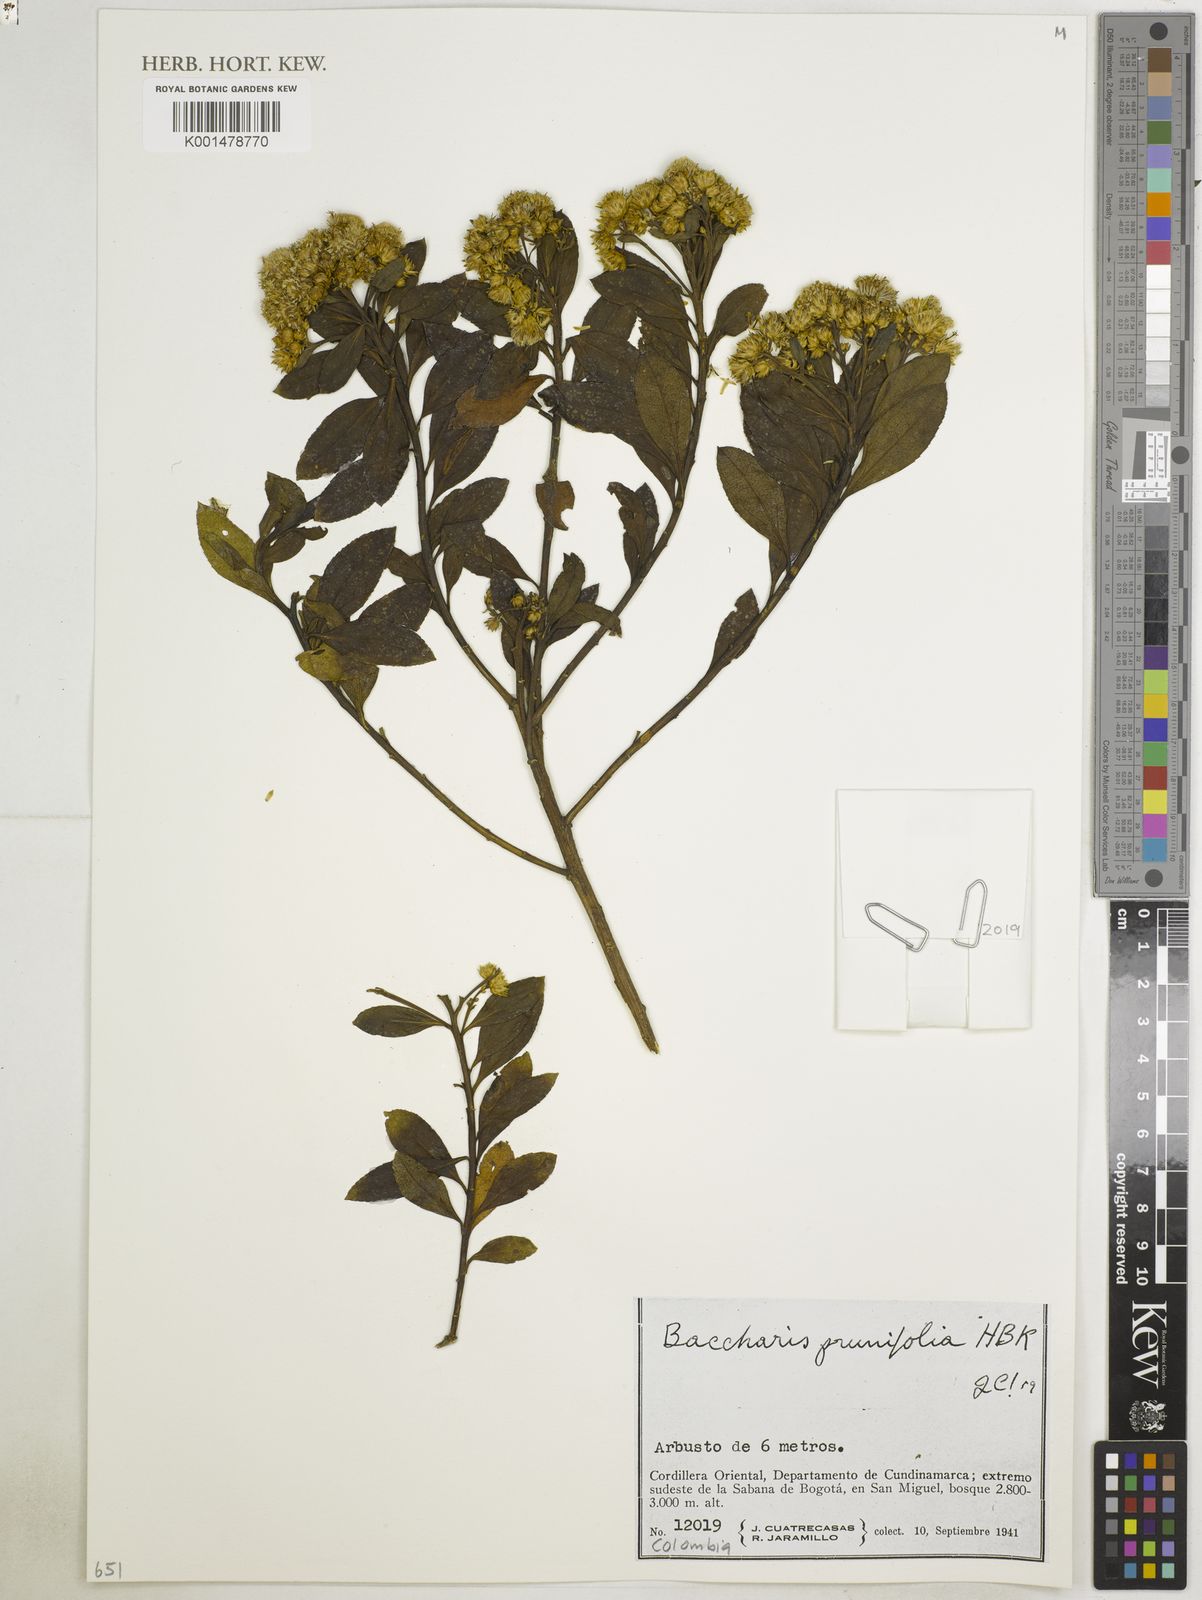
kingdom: Plantae
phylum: Tracheophyta
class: Magnoliopsida
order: Asterales
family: Asteraceae
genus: Baccharis
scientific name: Baccharis prunifolia
